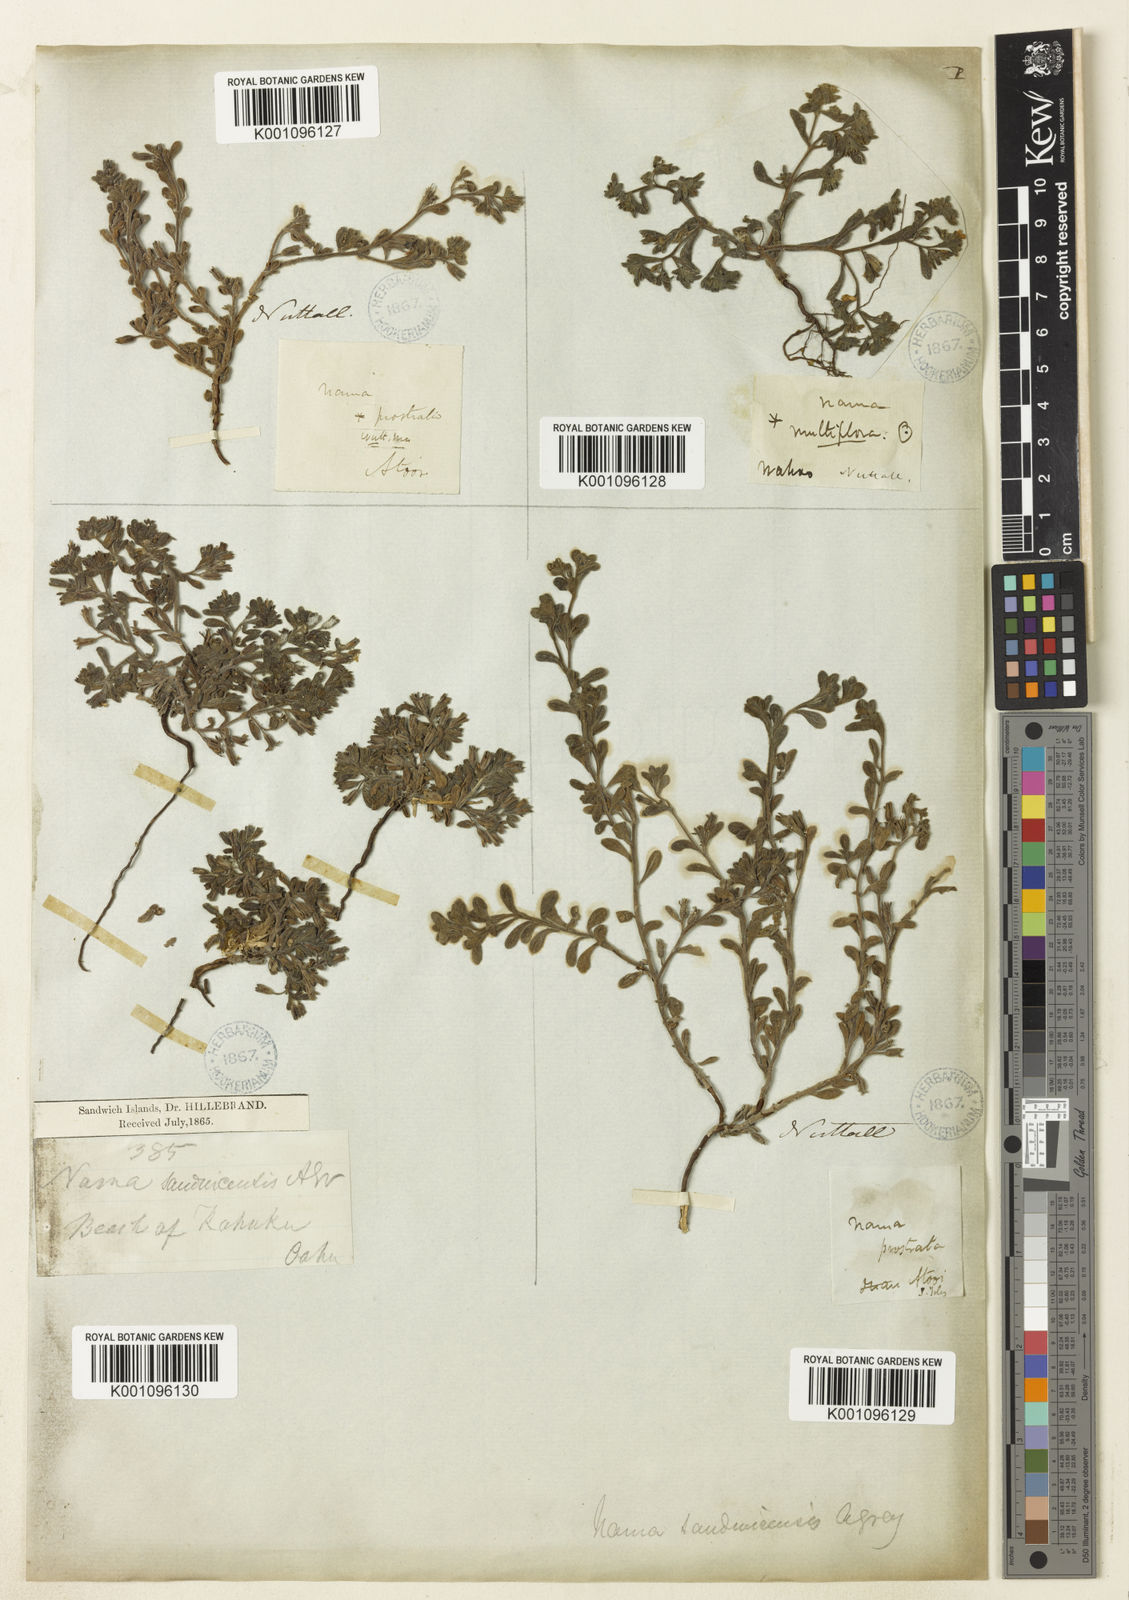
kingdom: Plantae
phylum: Tracheophyta
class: Magnoliopsida
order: Boraginales
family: Namaceae
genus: Nama
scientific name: Nama sandwicense
